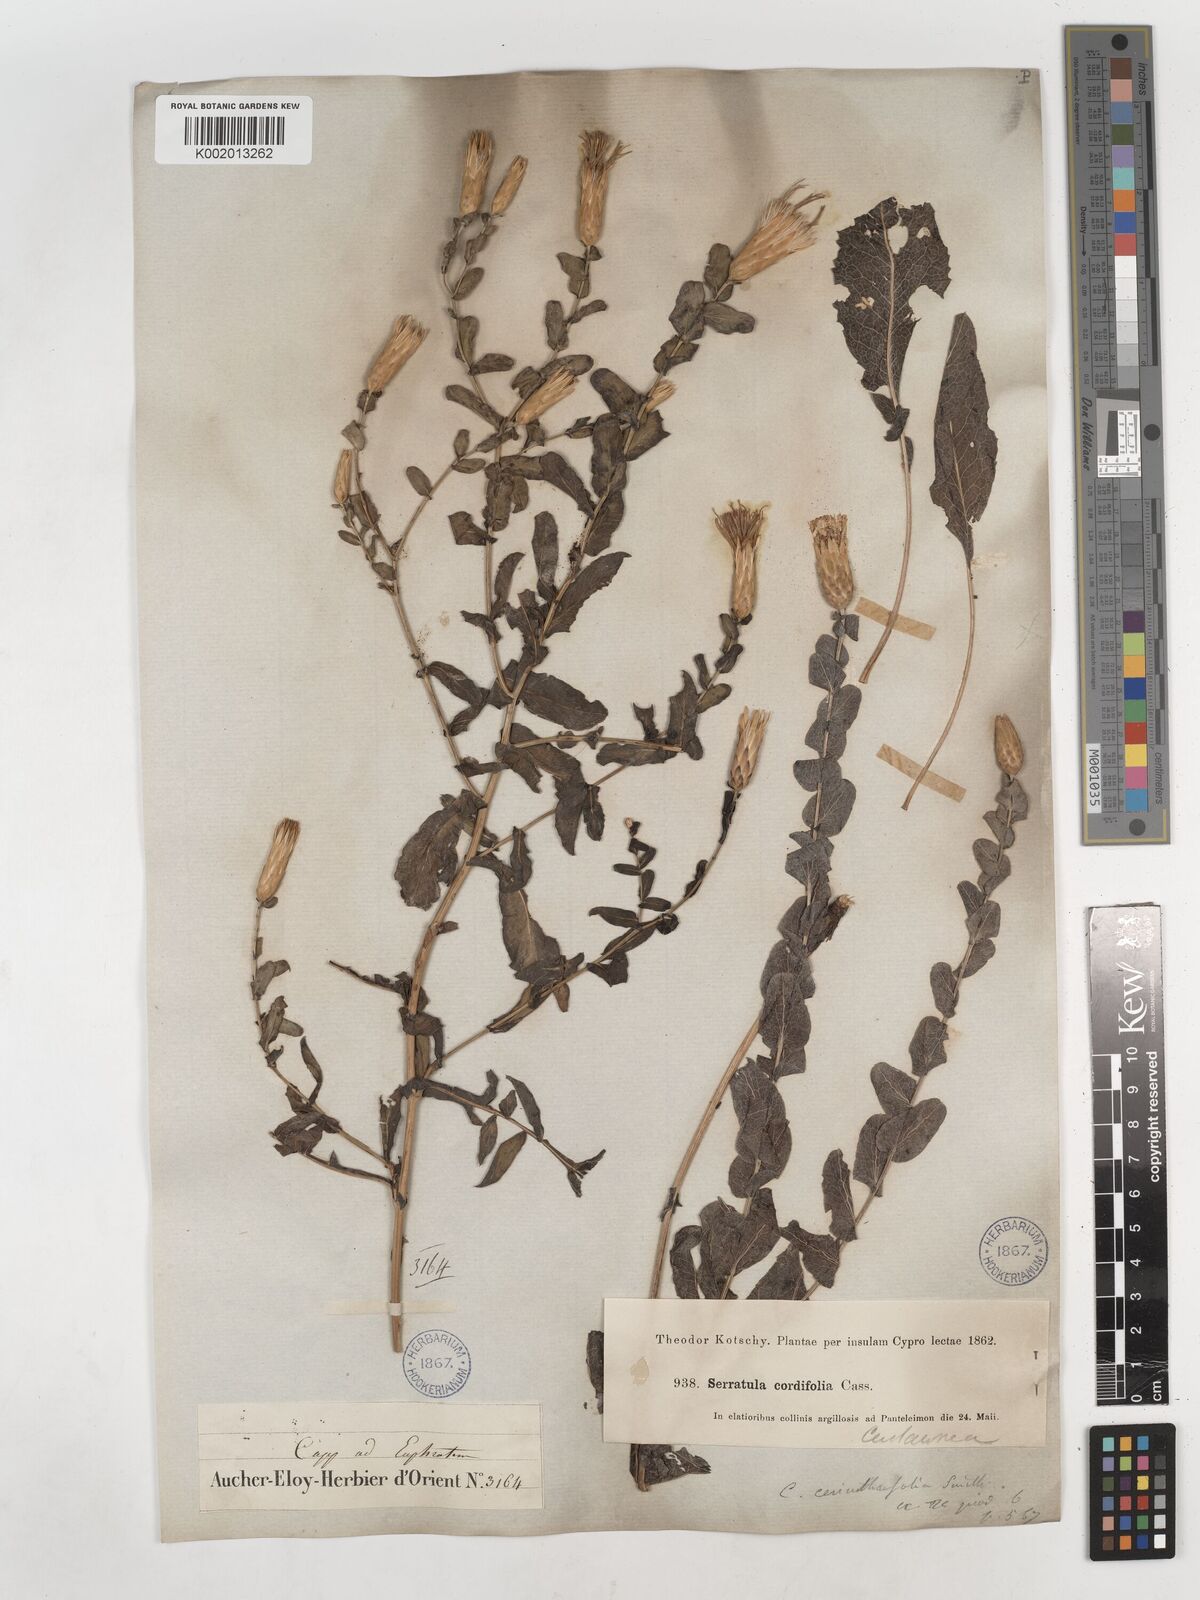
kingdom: Plantae
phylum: Tracheophyta
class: Magnoliopsida
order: Asterales
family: Asteraceae
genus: Klasea
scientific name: Klasea cerinthifolia
